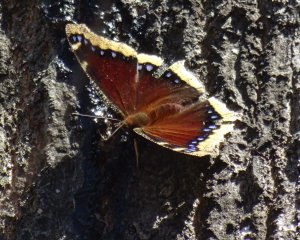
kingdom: Animalia
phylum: Arthropoda
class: Insecta
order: Lepidoptera
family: Nymphalidae
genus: Nymphalis
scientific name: Nymphalis antiopa
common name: Mourning Cloak
